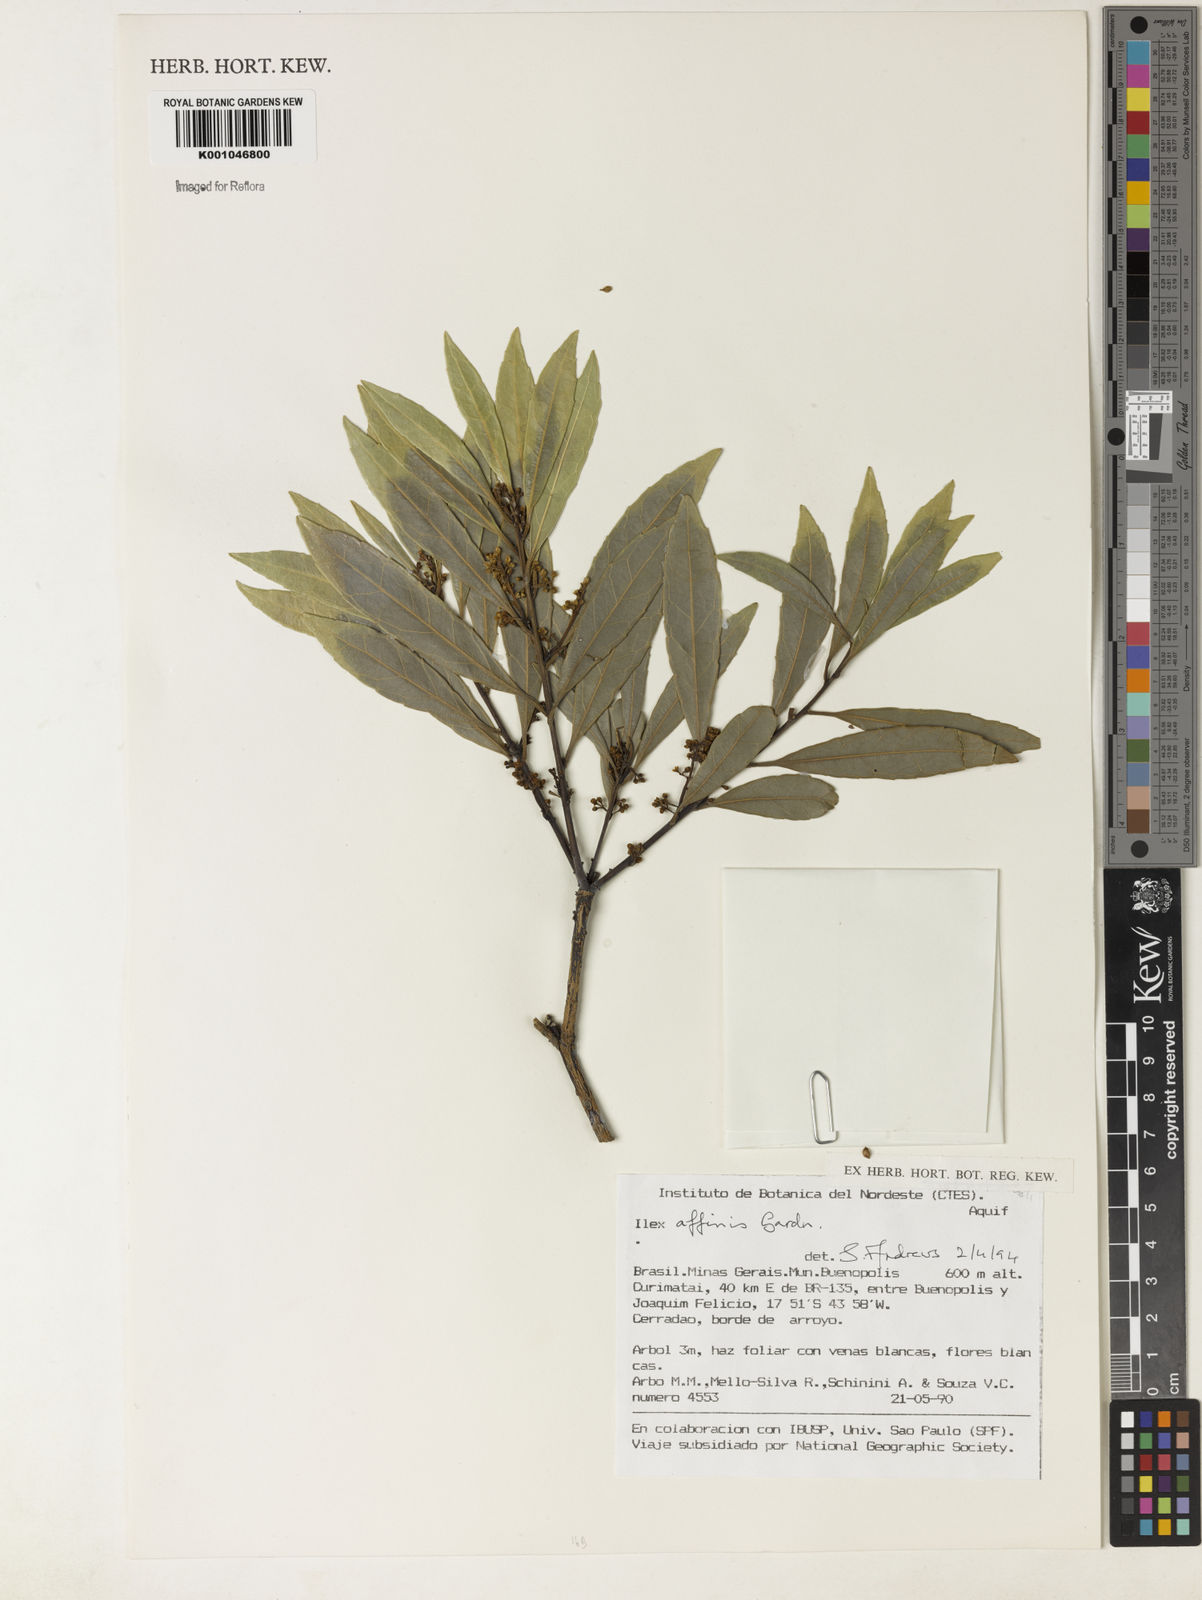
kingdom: Plantae
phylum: Tracheophyta
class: Magnoliopsida
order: Aquifoliales
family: Aquifoliaceae
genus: Ilex
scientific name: Ilex angustissima
